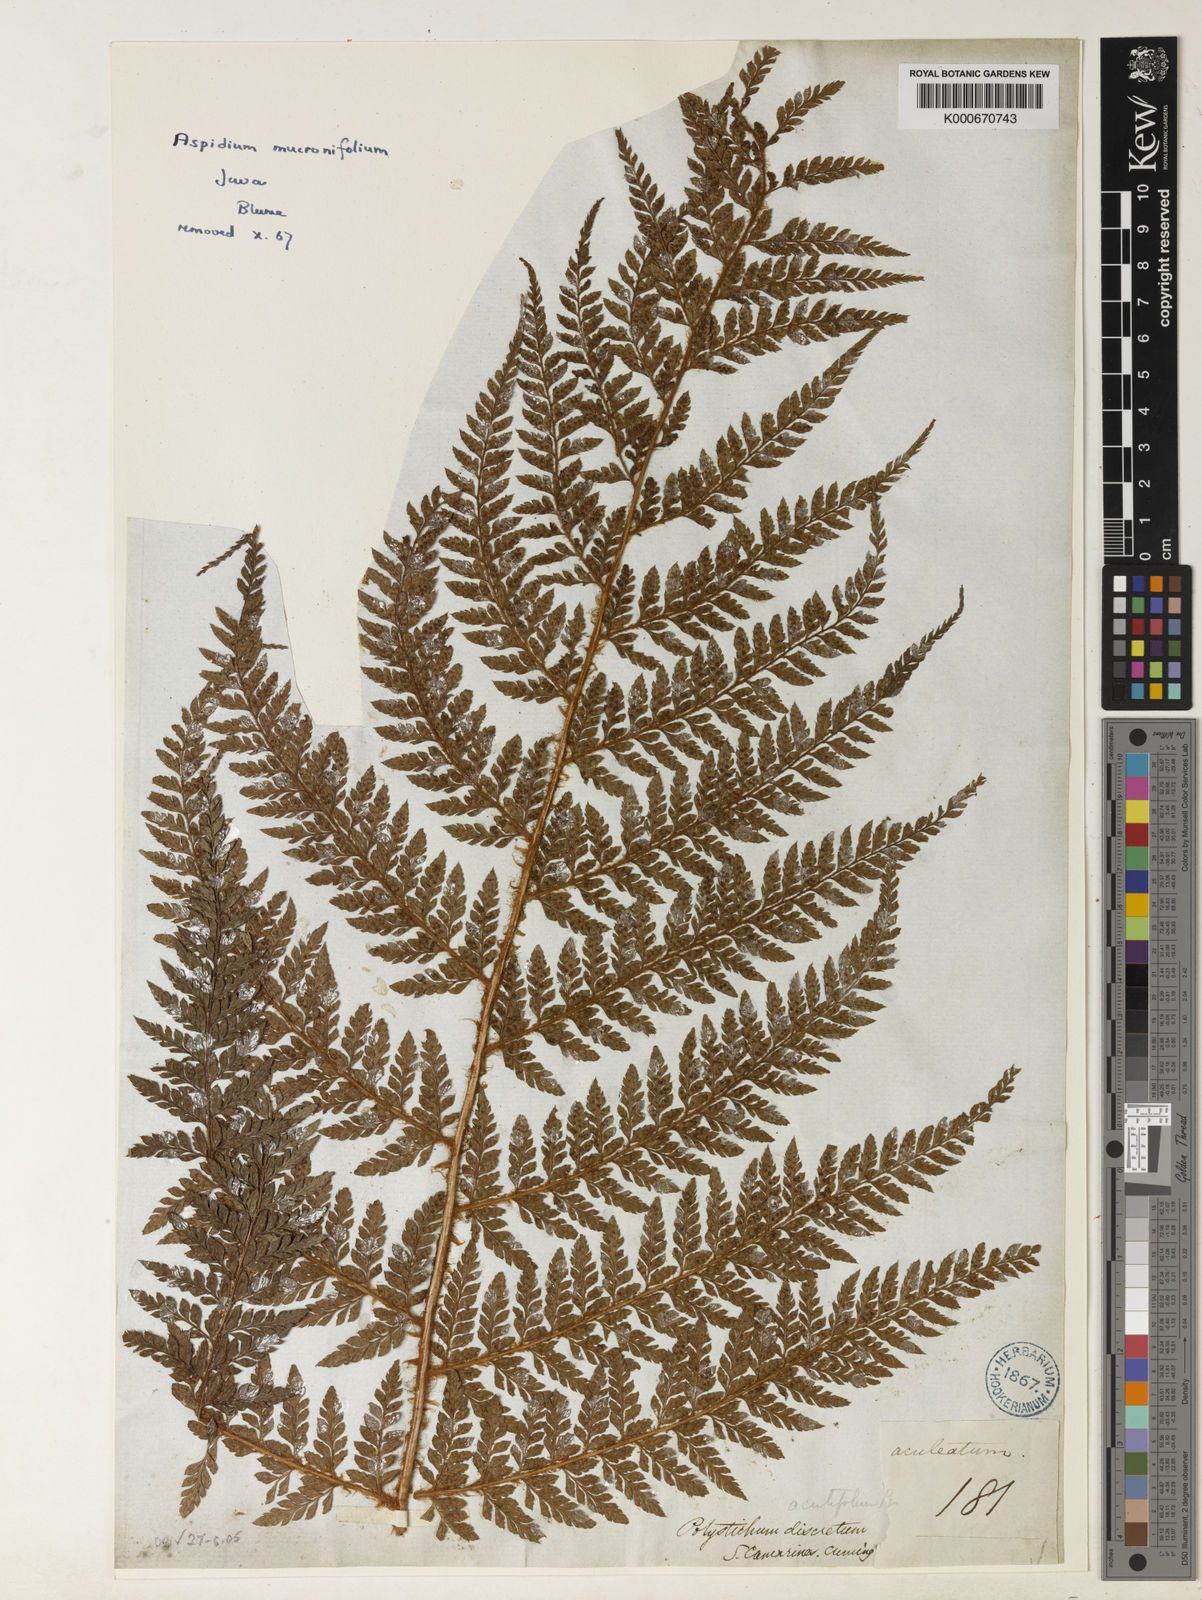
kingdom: Plantae
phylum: Tracheophyta
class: Polypodiopsida
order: Polypodiales
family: Dryopteridaceae
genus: Polystichum
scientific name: Polystichum moluccense
